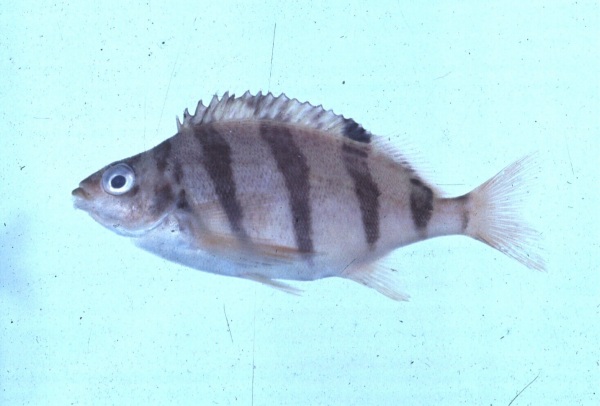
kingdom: Animalia
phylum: Chordata
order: Perciformes
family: Cheilodactylidae
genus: Cheilodactylus
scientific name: Cheilodactylus pixi
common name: Barred fingerfin
